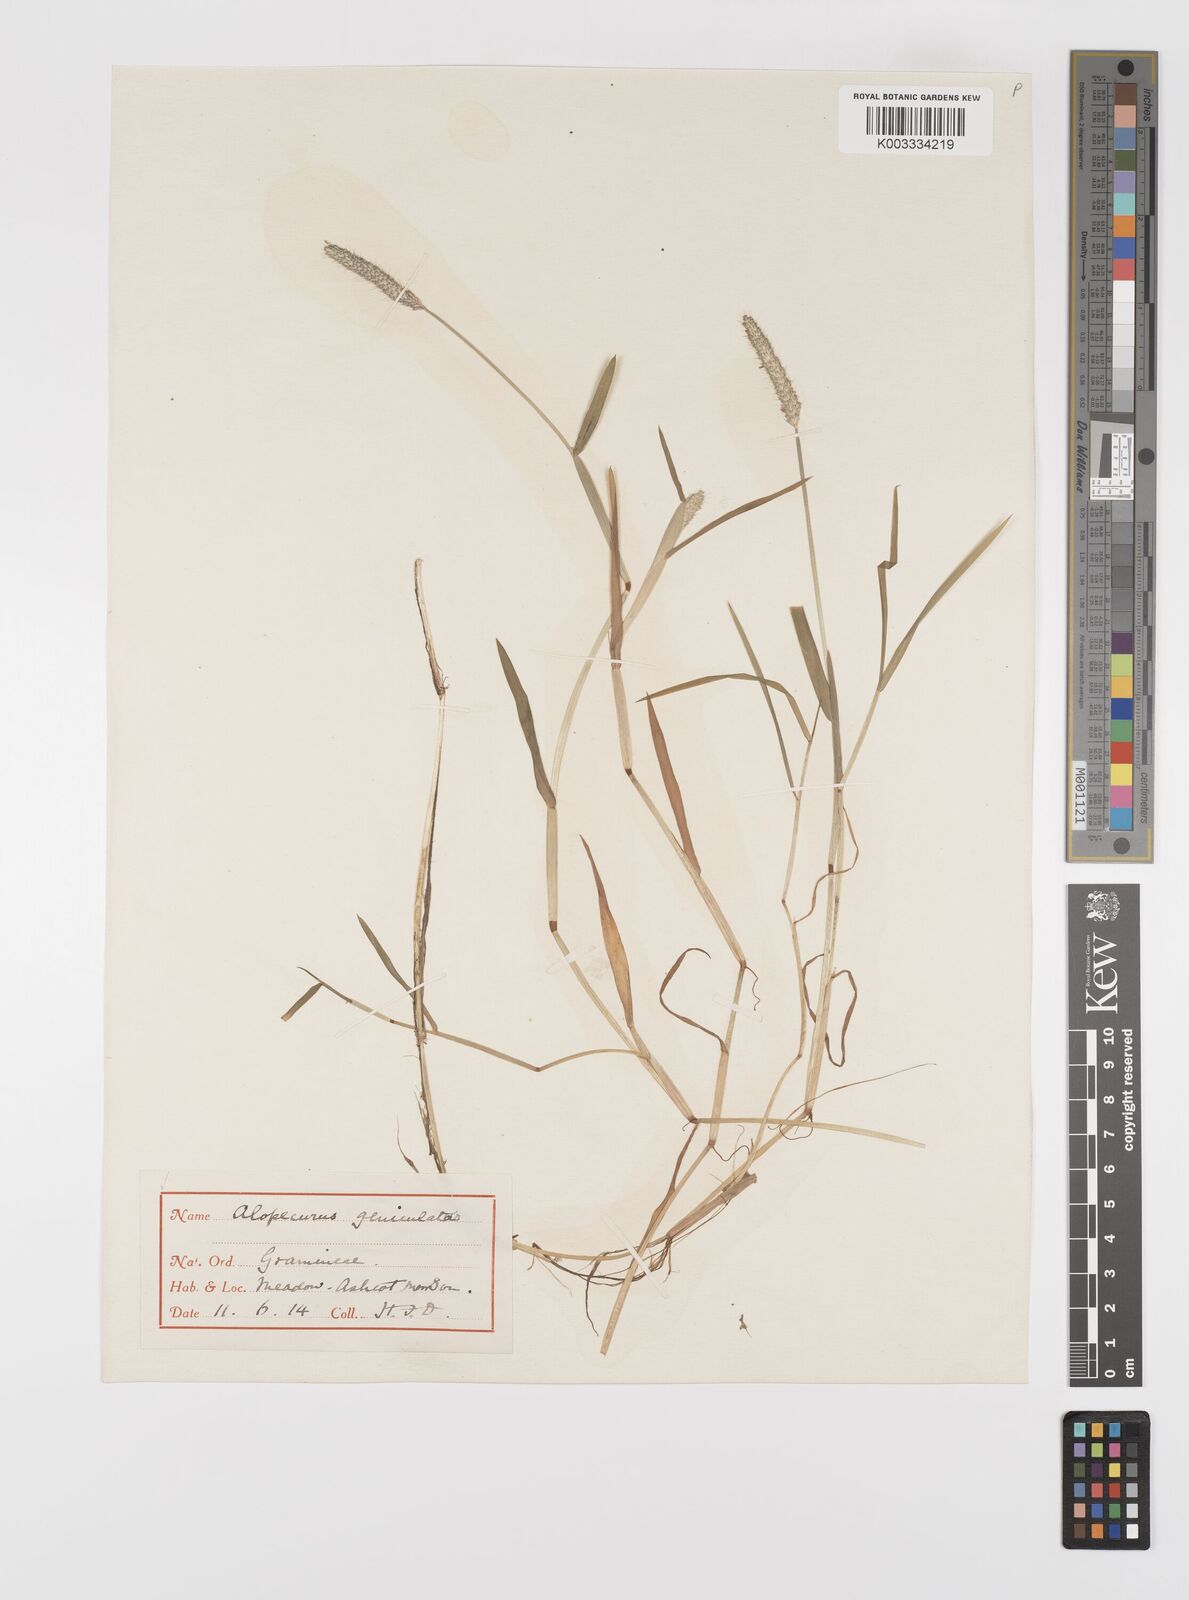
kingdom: Plantae
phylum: Tracheophyta
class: Liliopsida
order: Poales
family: Poaceae
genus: Alopecurus
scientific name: Alopecurus geniculatus
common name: Water foxtail
